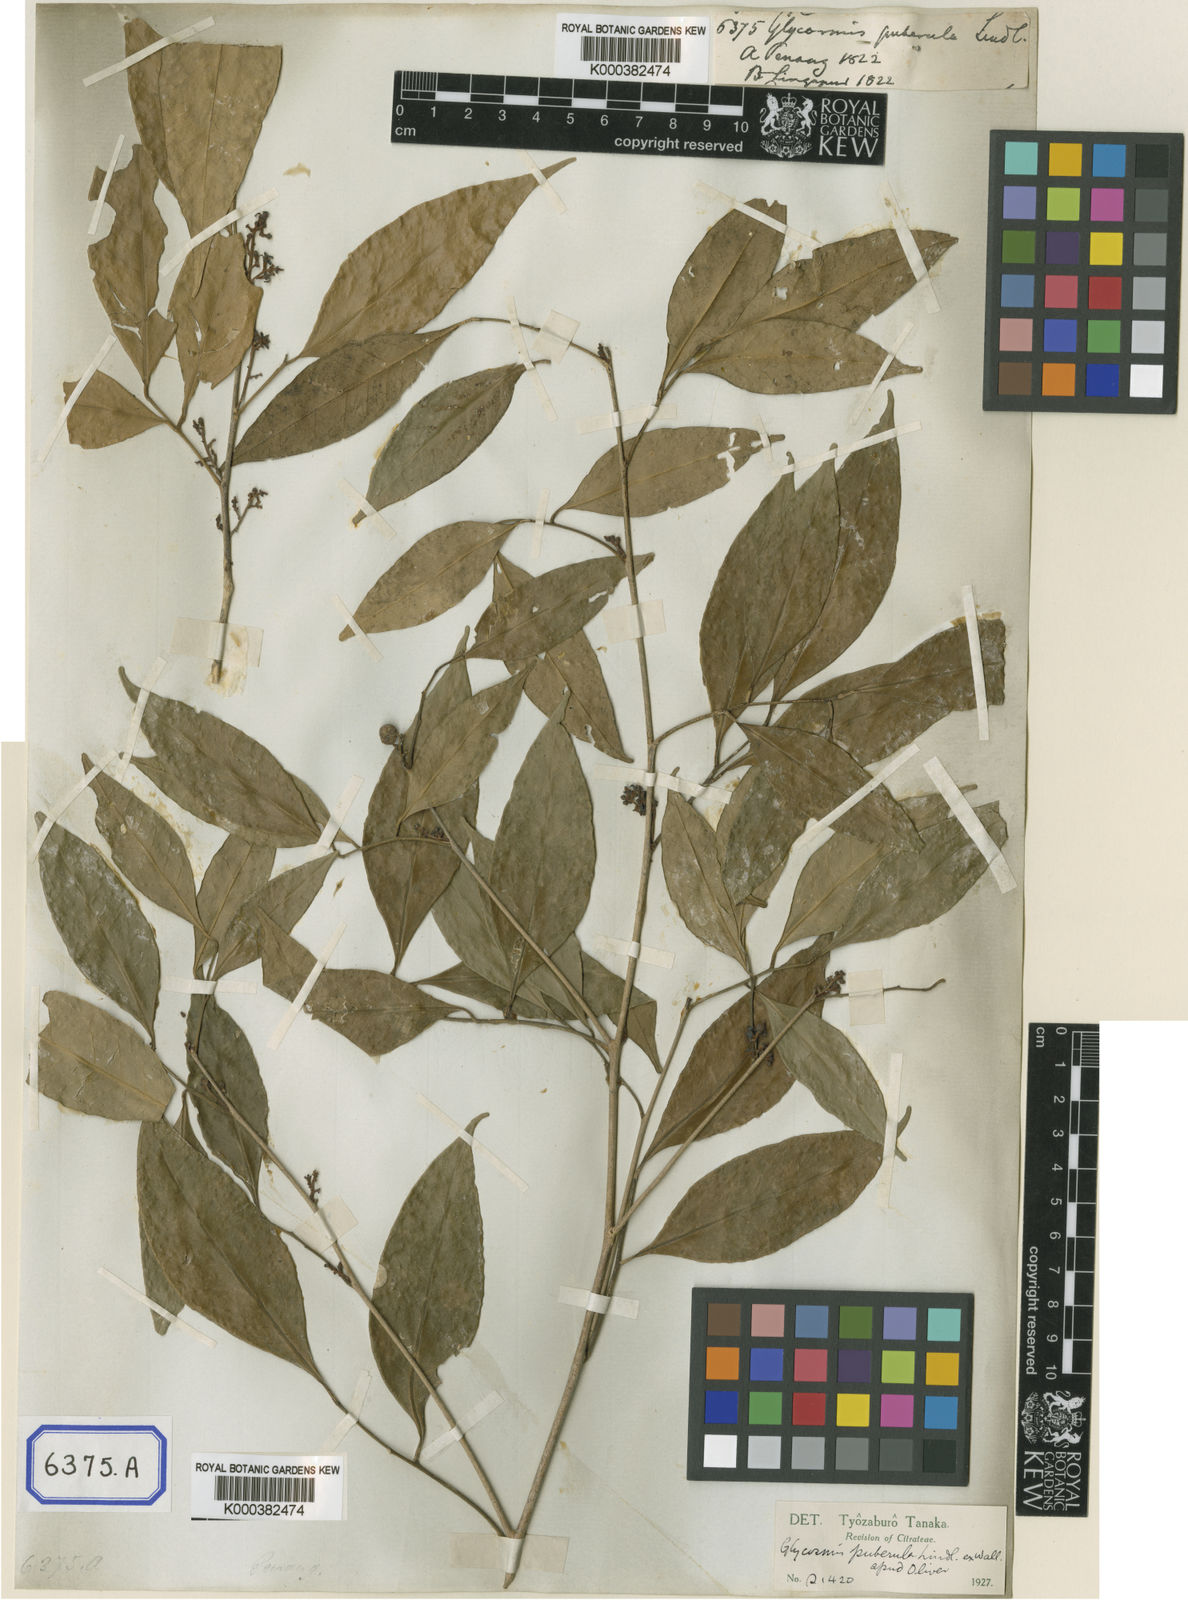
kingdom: Plantae
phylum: Tracheophyta
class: Magnoliopsida
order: Sapindales
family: Rutaceae
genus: Glycosmis
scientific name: Glycosmis
